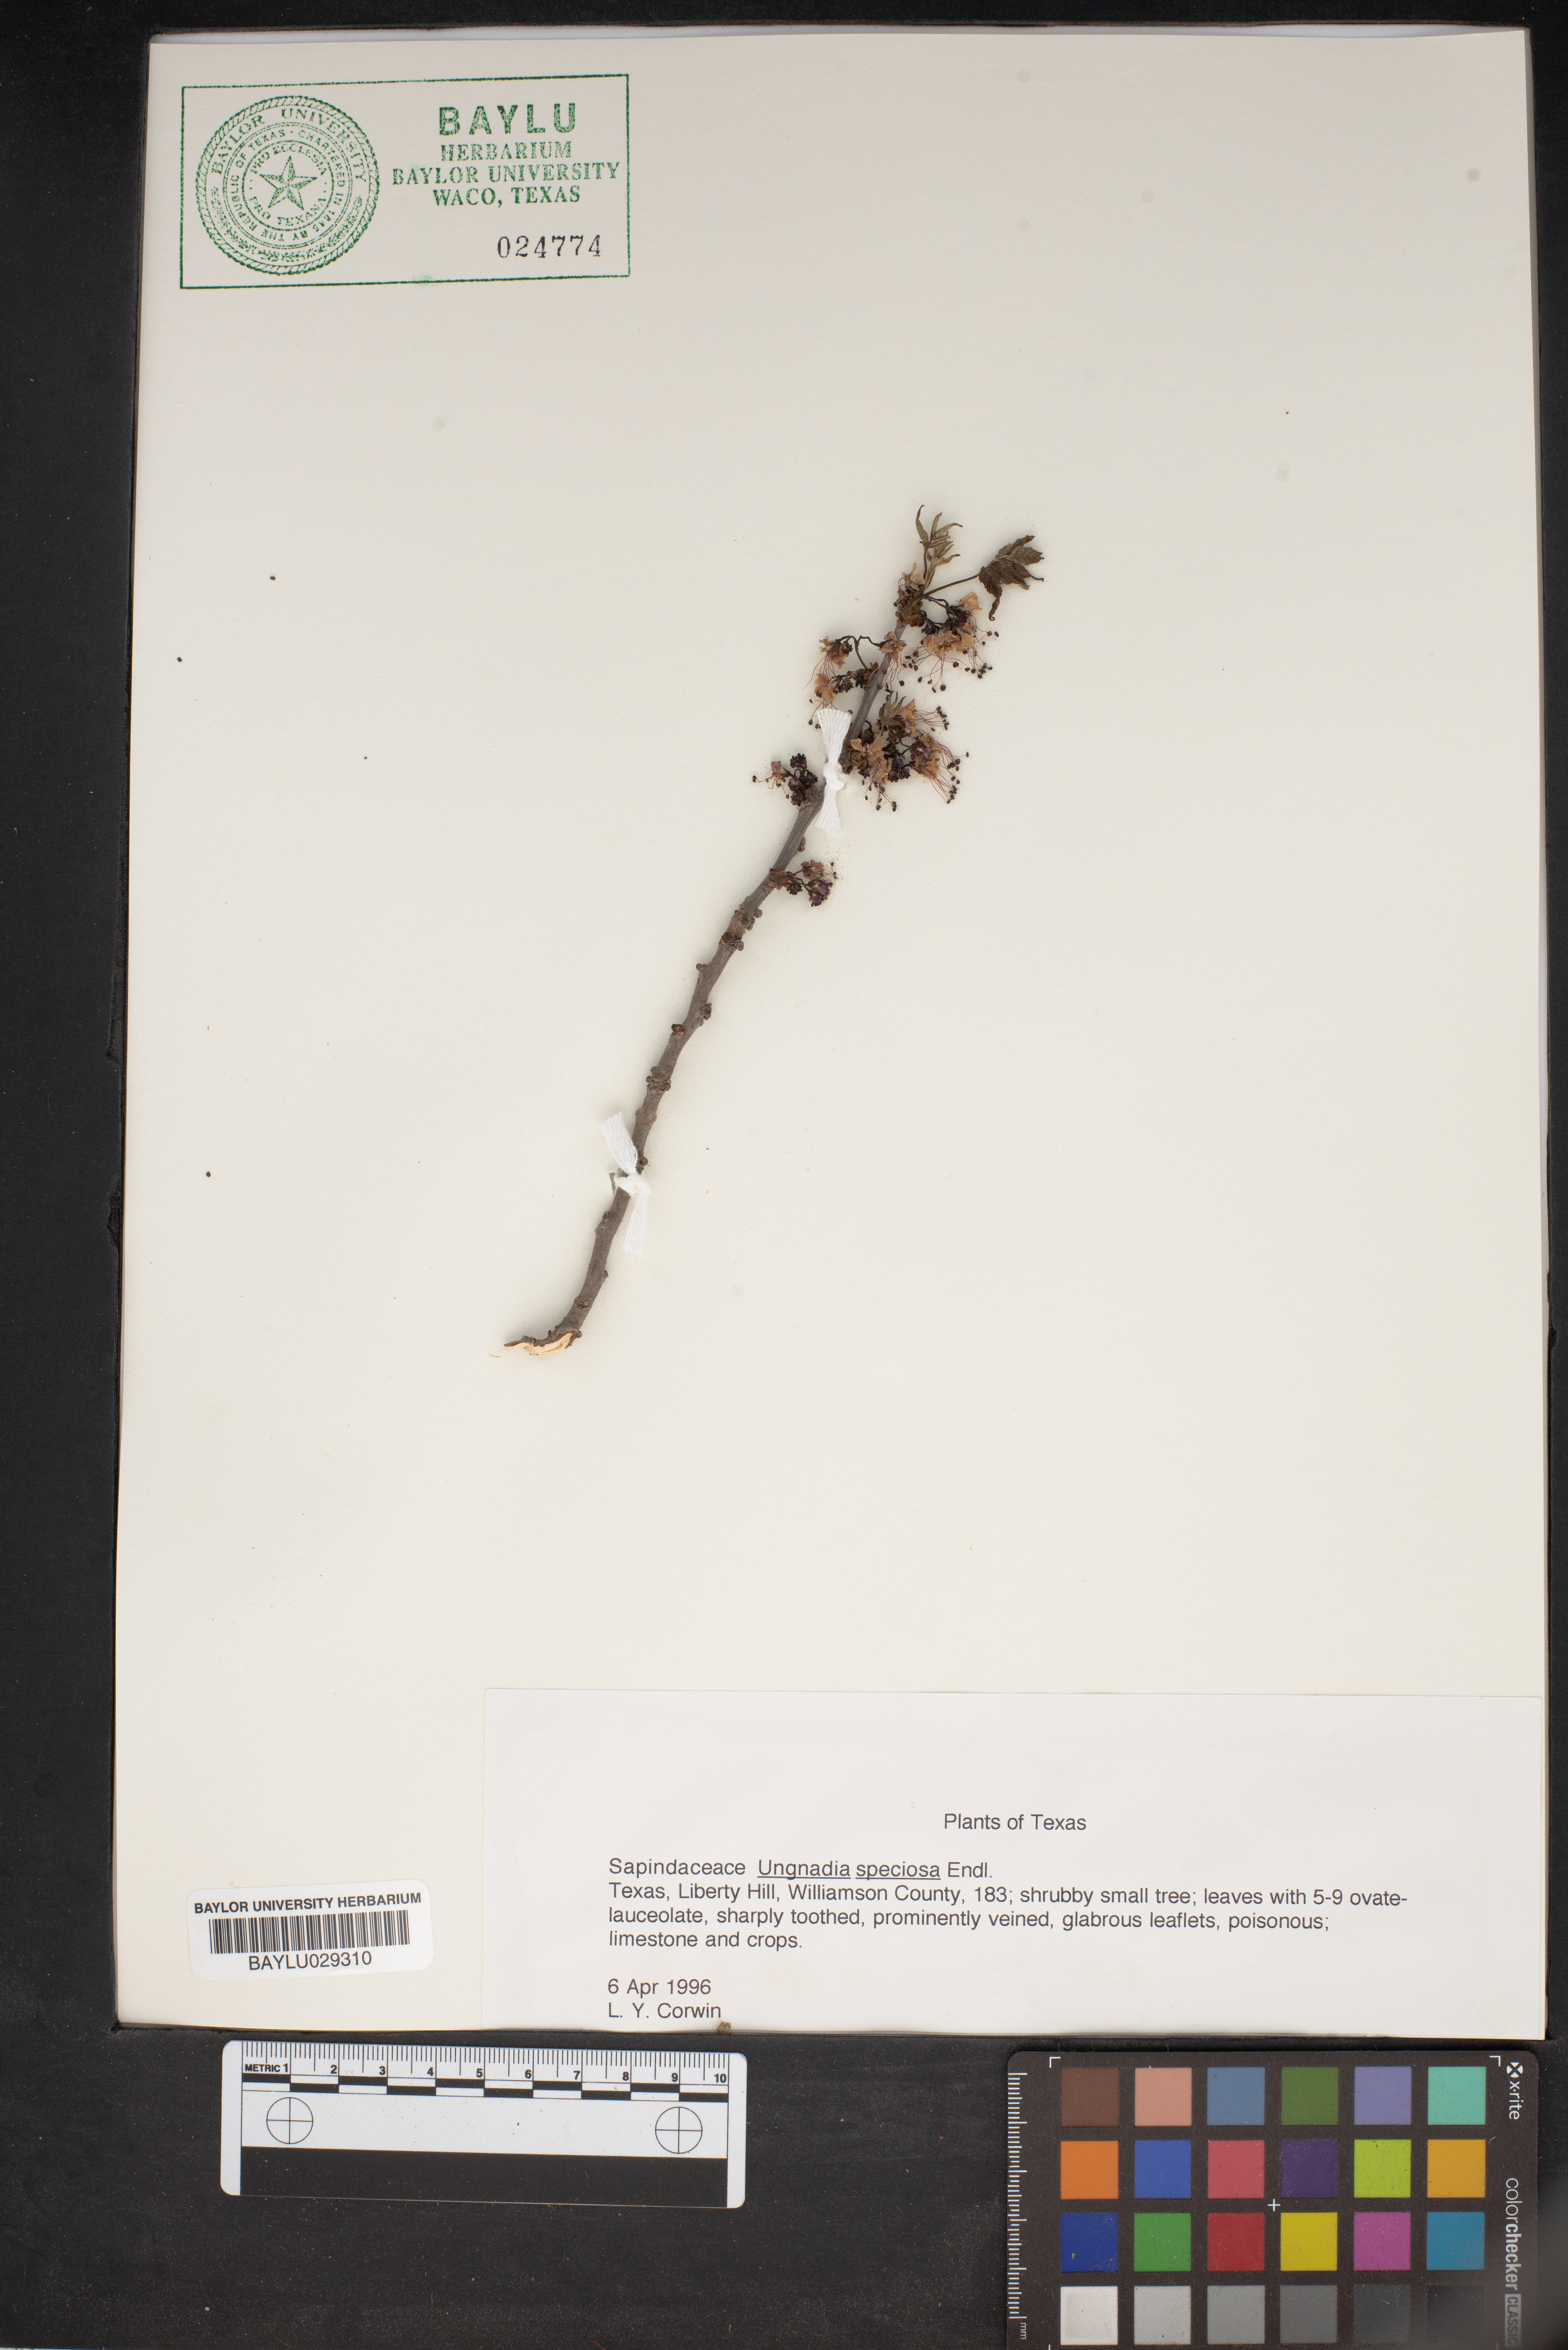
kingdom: Plantae
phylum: Tracheophyta
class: Magnoliopsida
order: Sapindales
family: Sapindaceae
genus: Ungnadia
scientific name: Ungnadia speciosa
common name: Texas-buckeye
